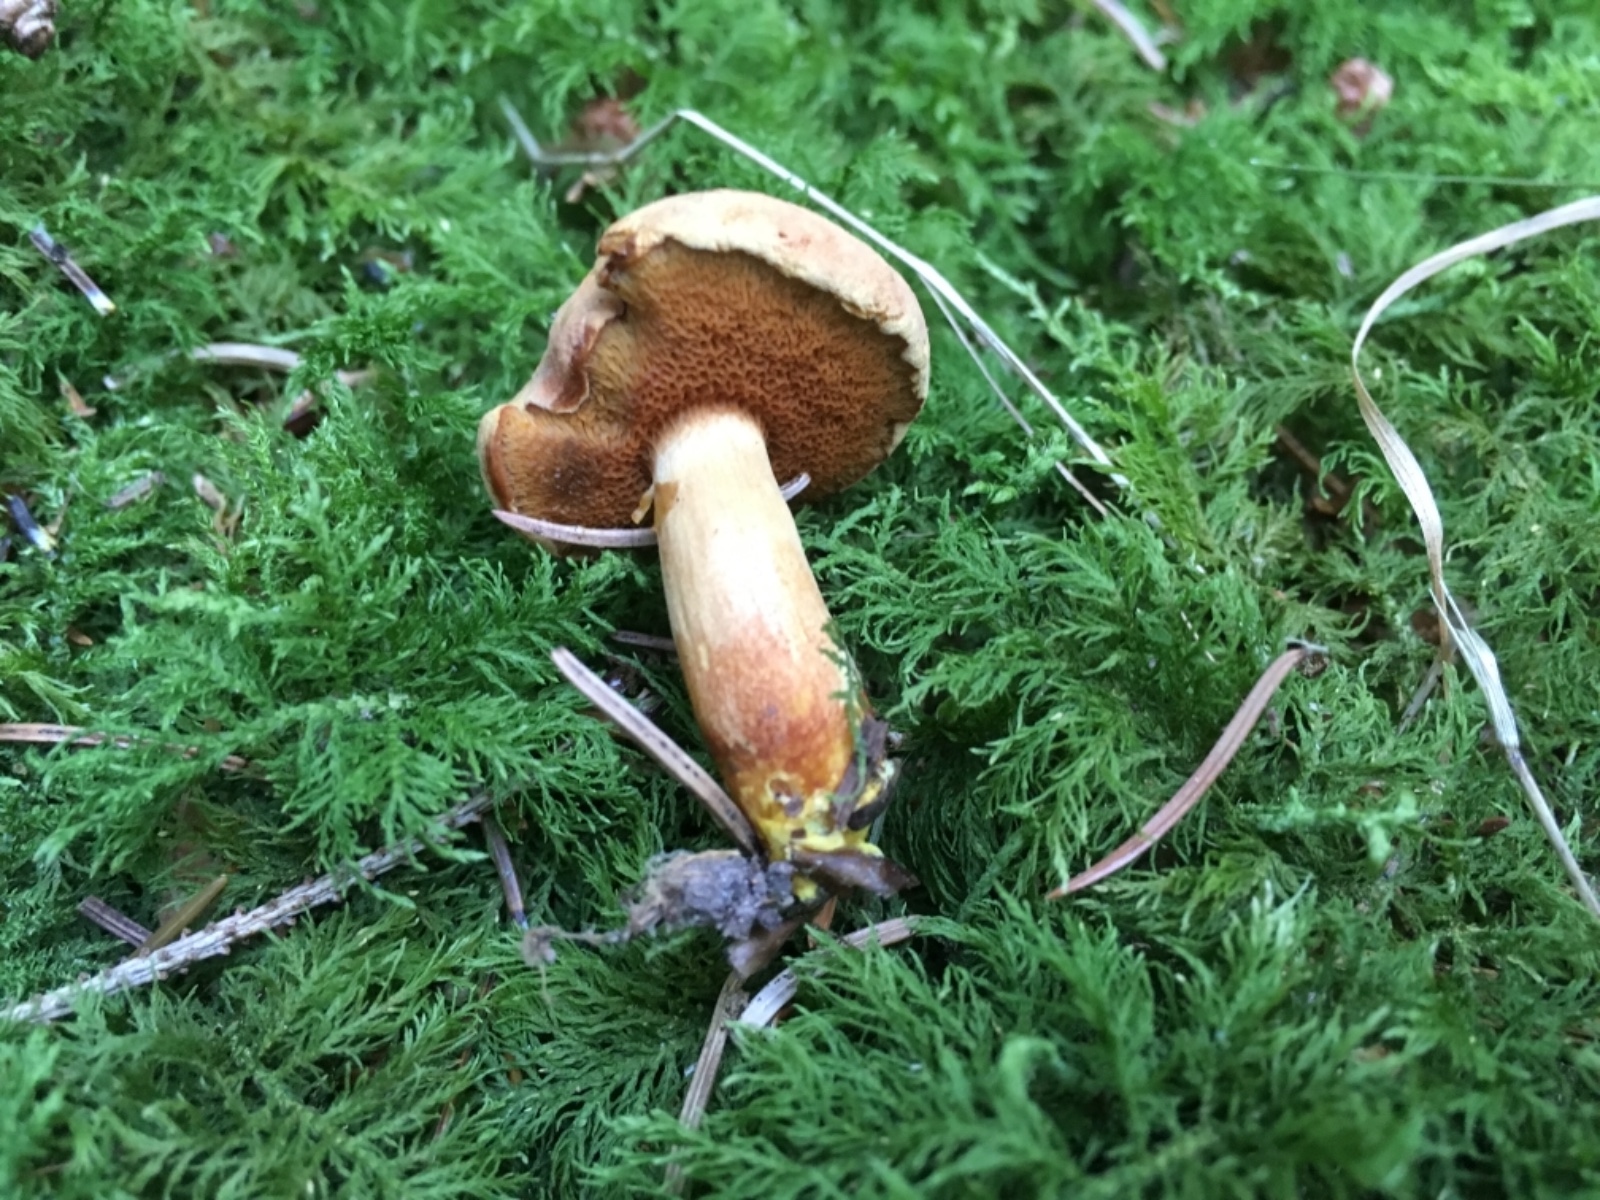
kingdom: Fungi
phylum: Basidiomycota
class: Agaricomycetes
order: Boletales
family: Boletaceae
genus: Chalciporus
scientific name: Chalciporus piperatus
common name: peberrørhat
